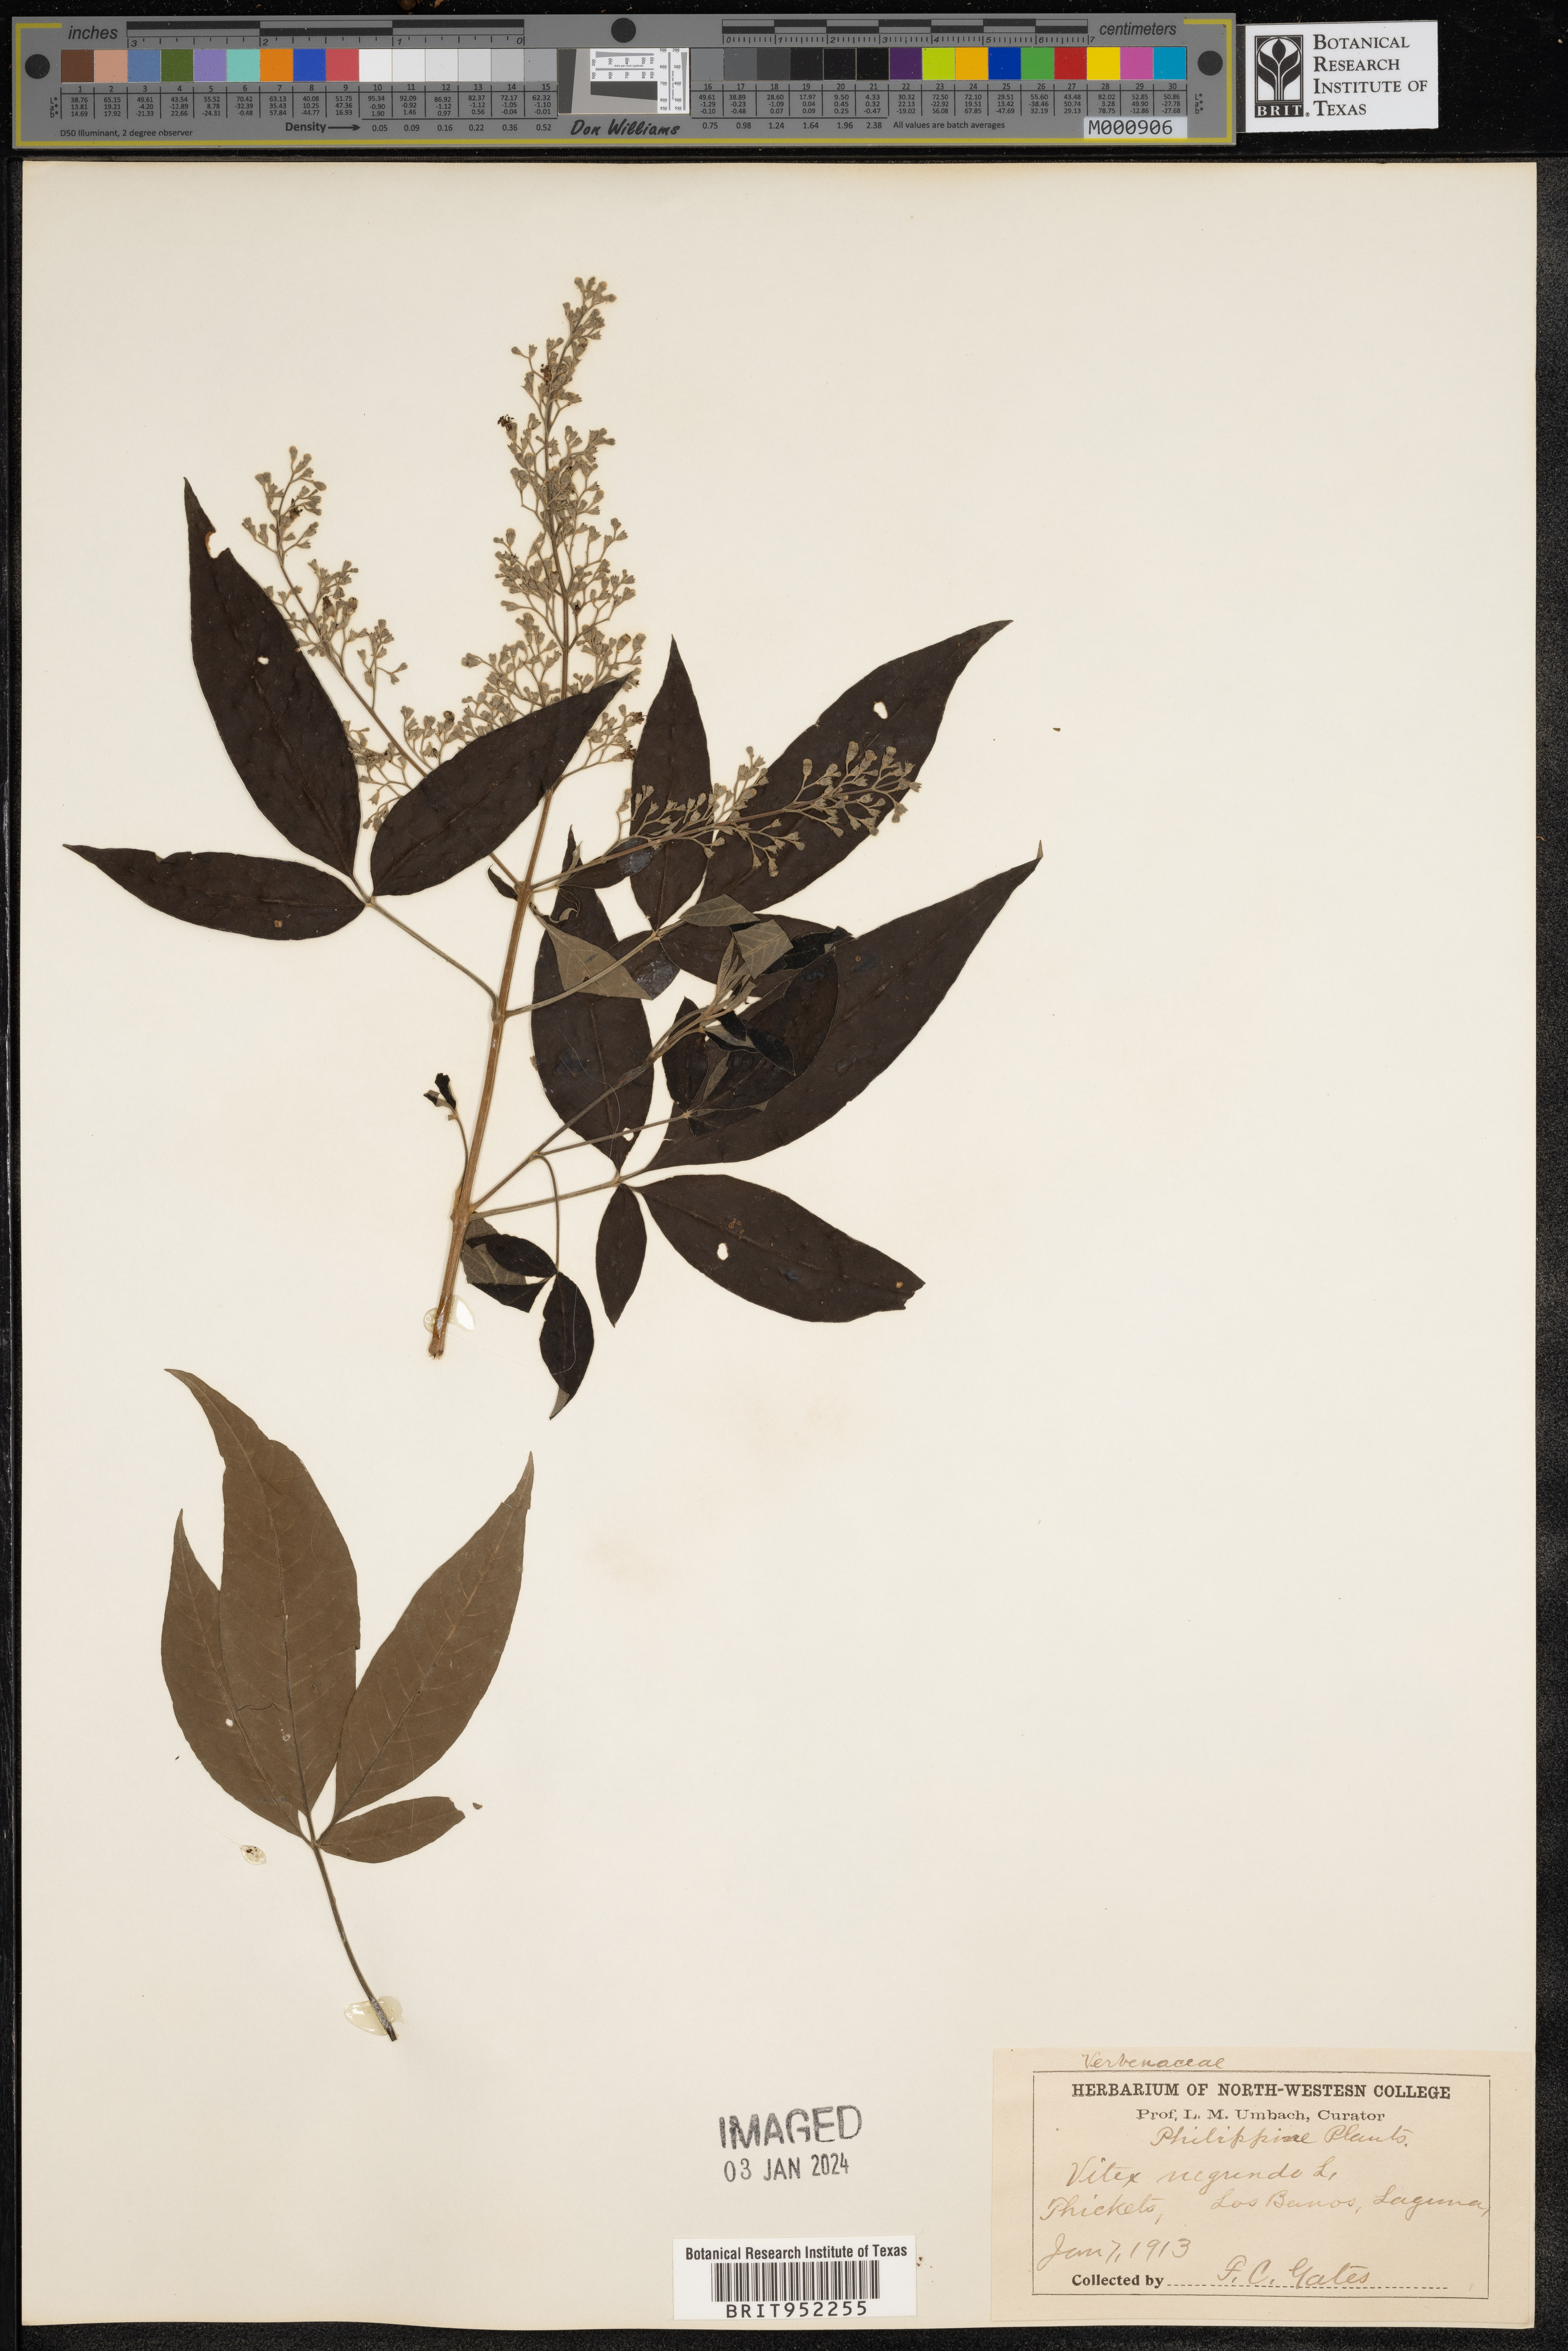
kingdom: Plantae
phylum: Tracheophyta
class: Magnoliopsida
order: Lamiales
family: Lamiaceae
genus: Vitex
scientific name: Vitex
